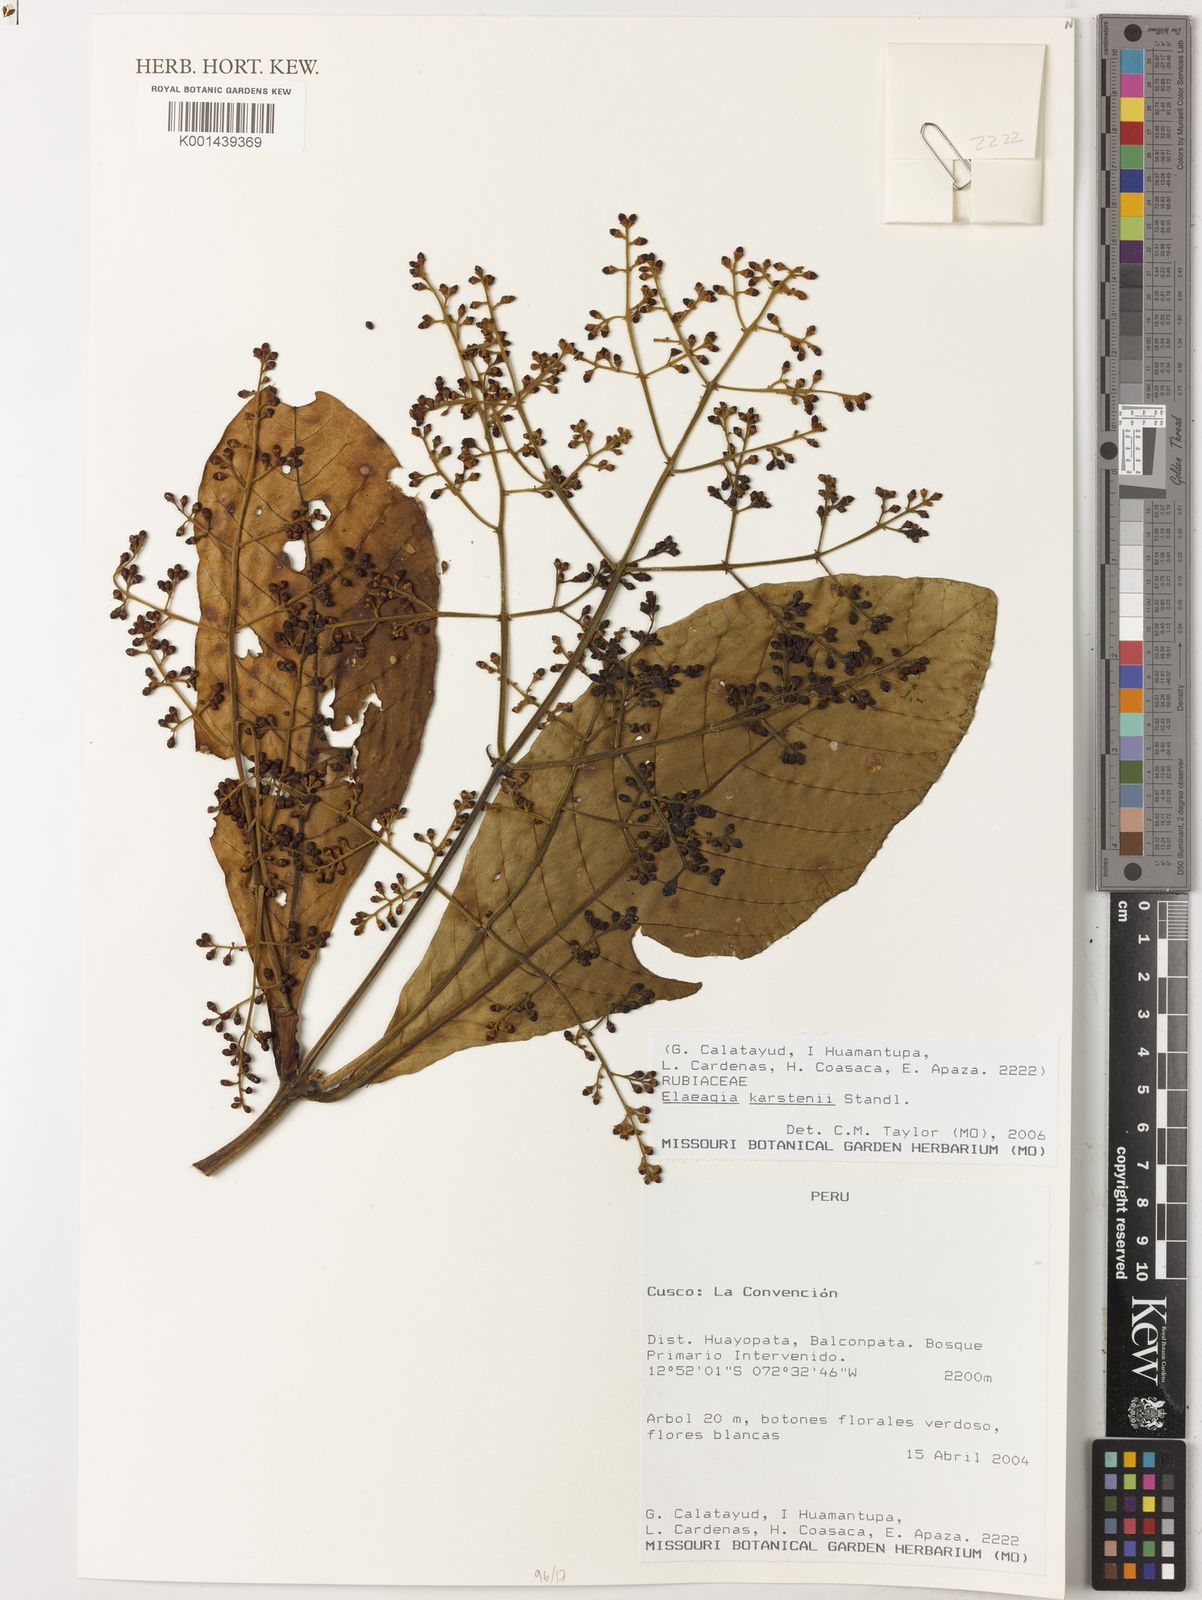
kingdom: Plantae
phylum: Tracheophyta
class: Magnoliopsida
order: Gentianales
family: Rubiaceae
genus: Elaeagia
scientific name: Elaeagia karstenii
